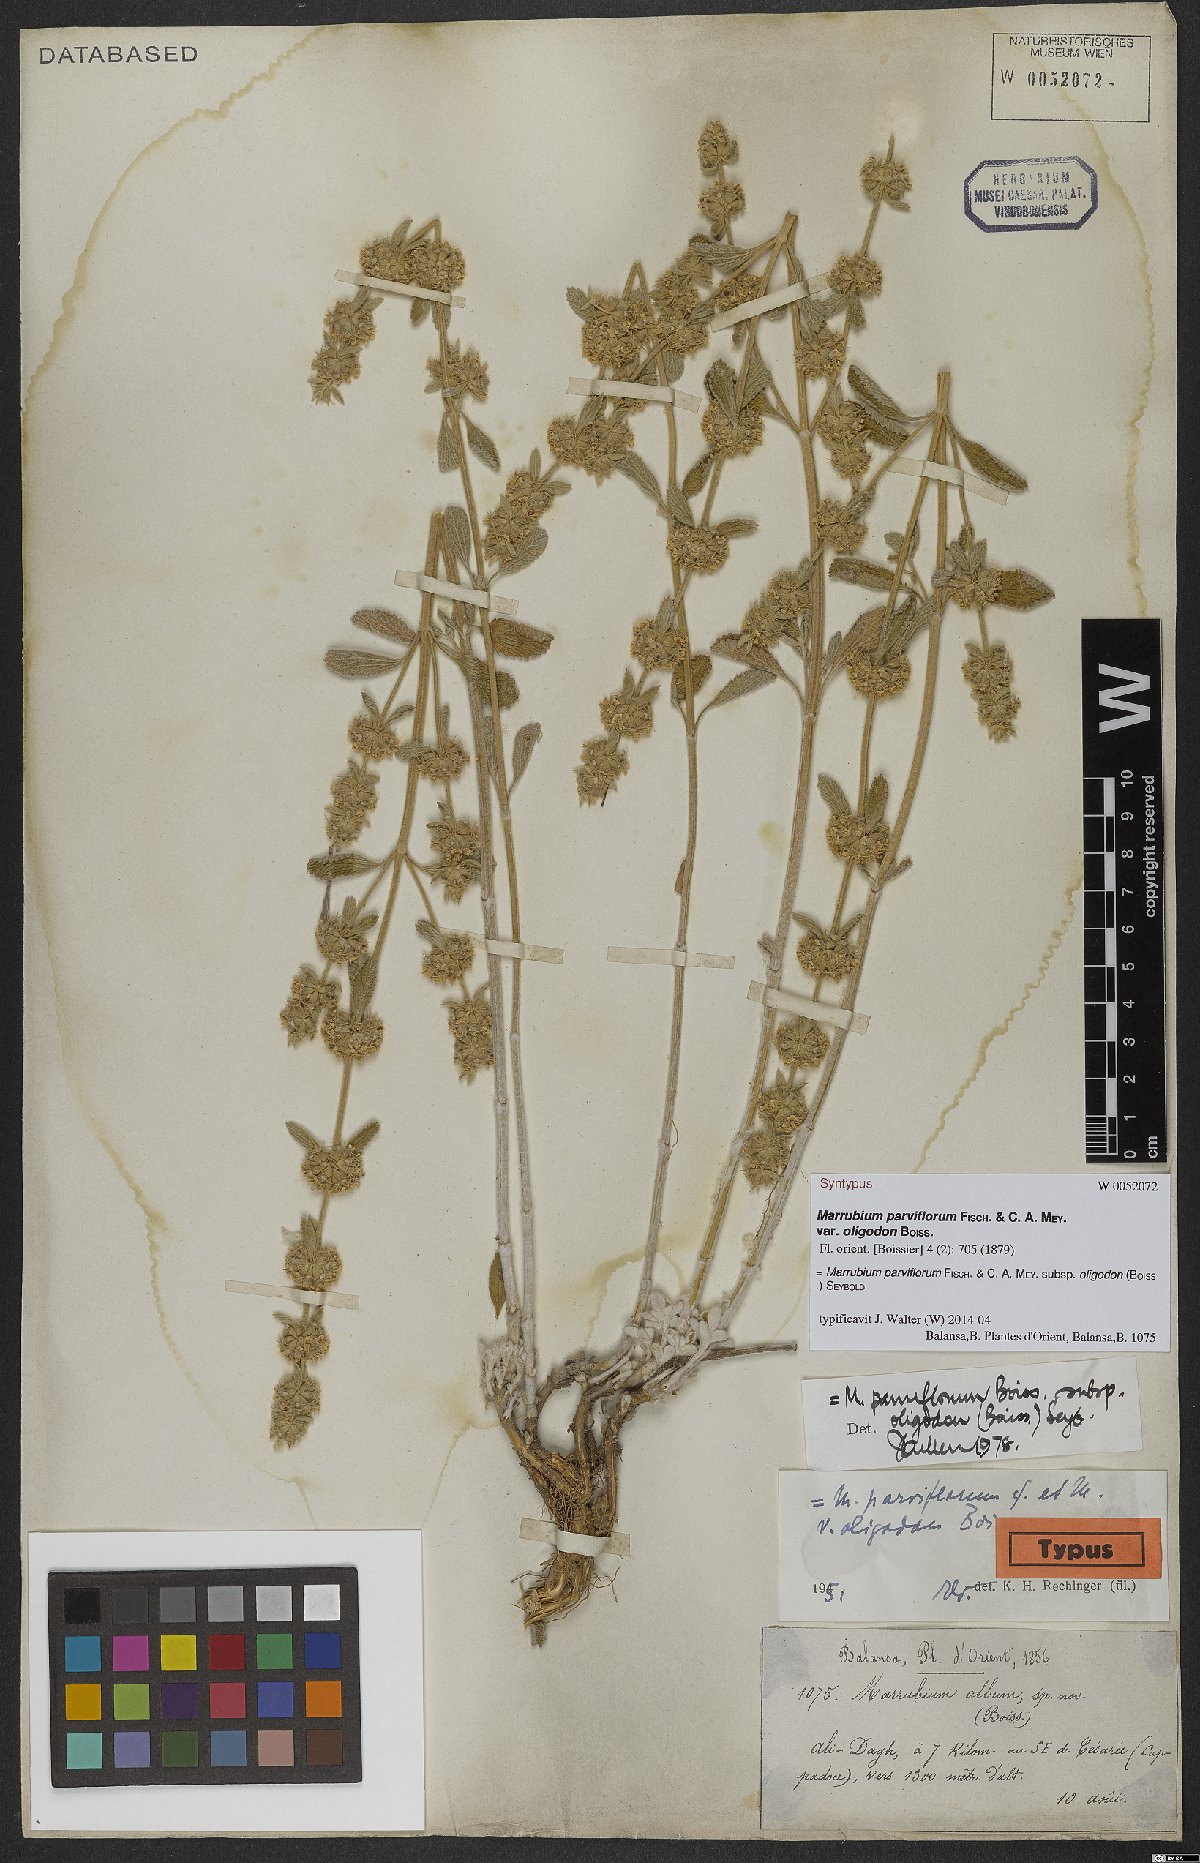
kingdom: Plantae
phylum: Tracheophyta
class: Magnoliopsida
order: Lamiales
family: Lamiaceae
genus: Marrubium
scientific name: Marrubium parviflorum
